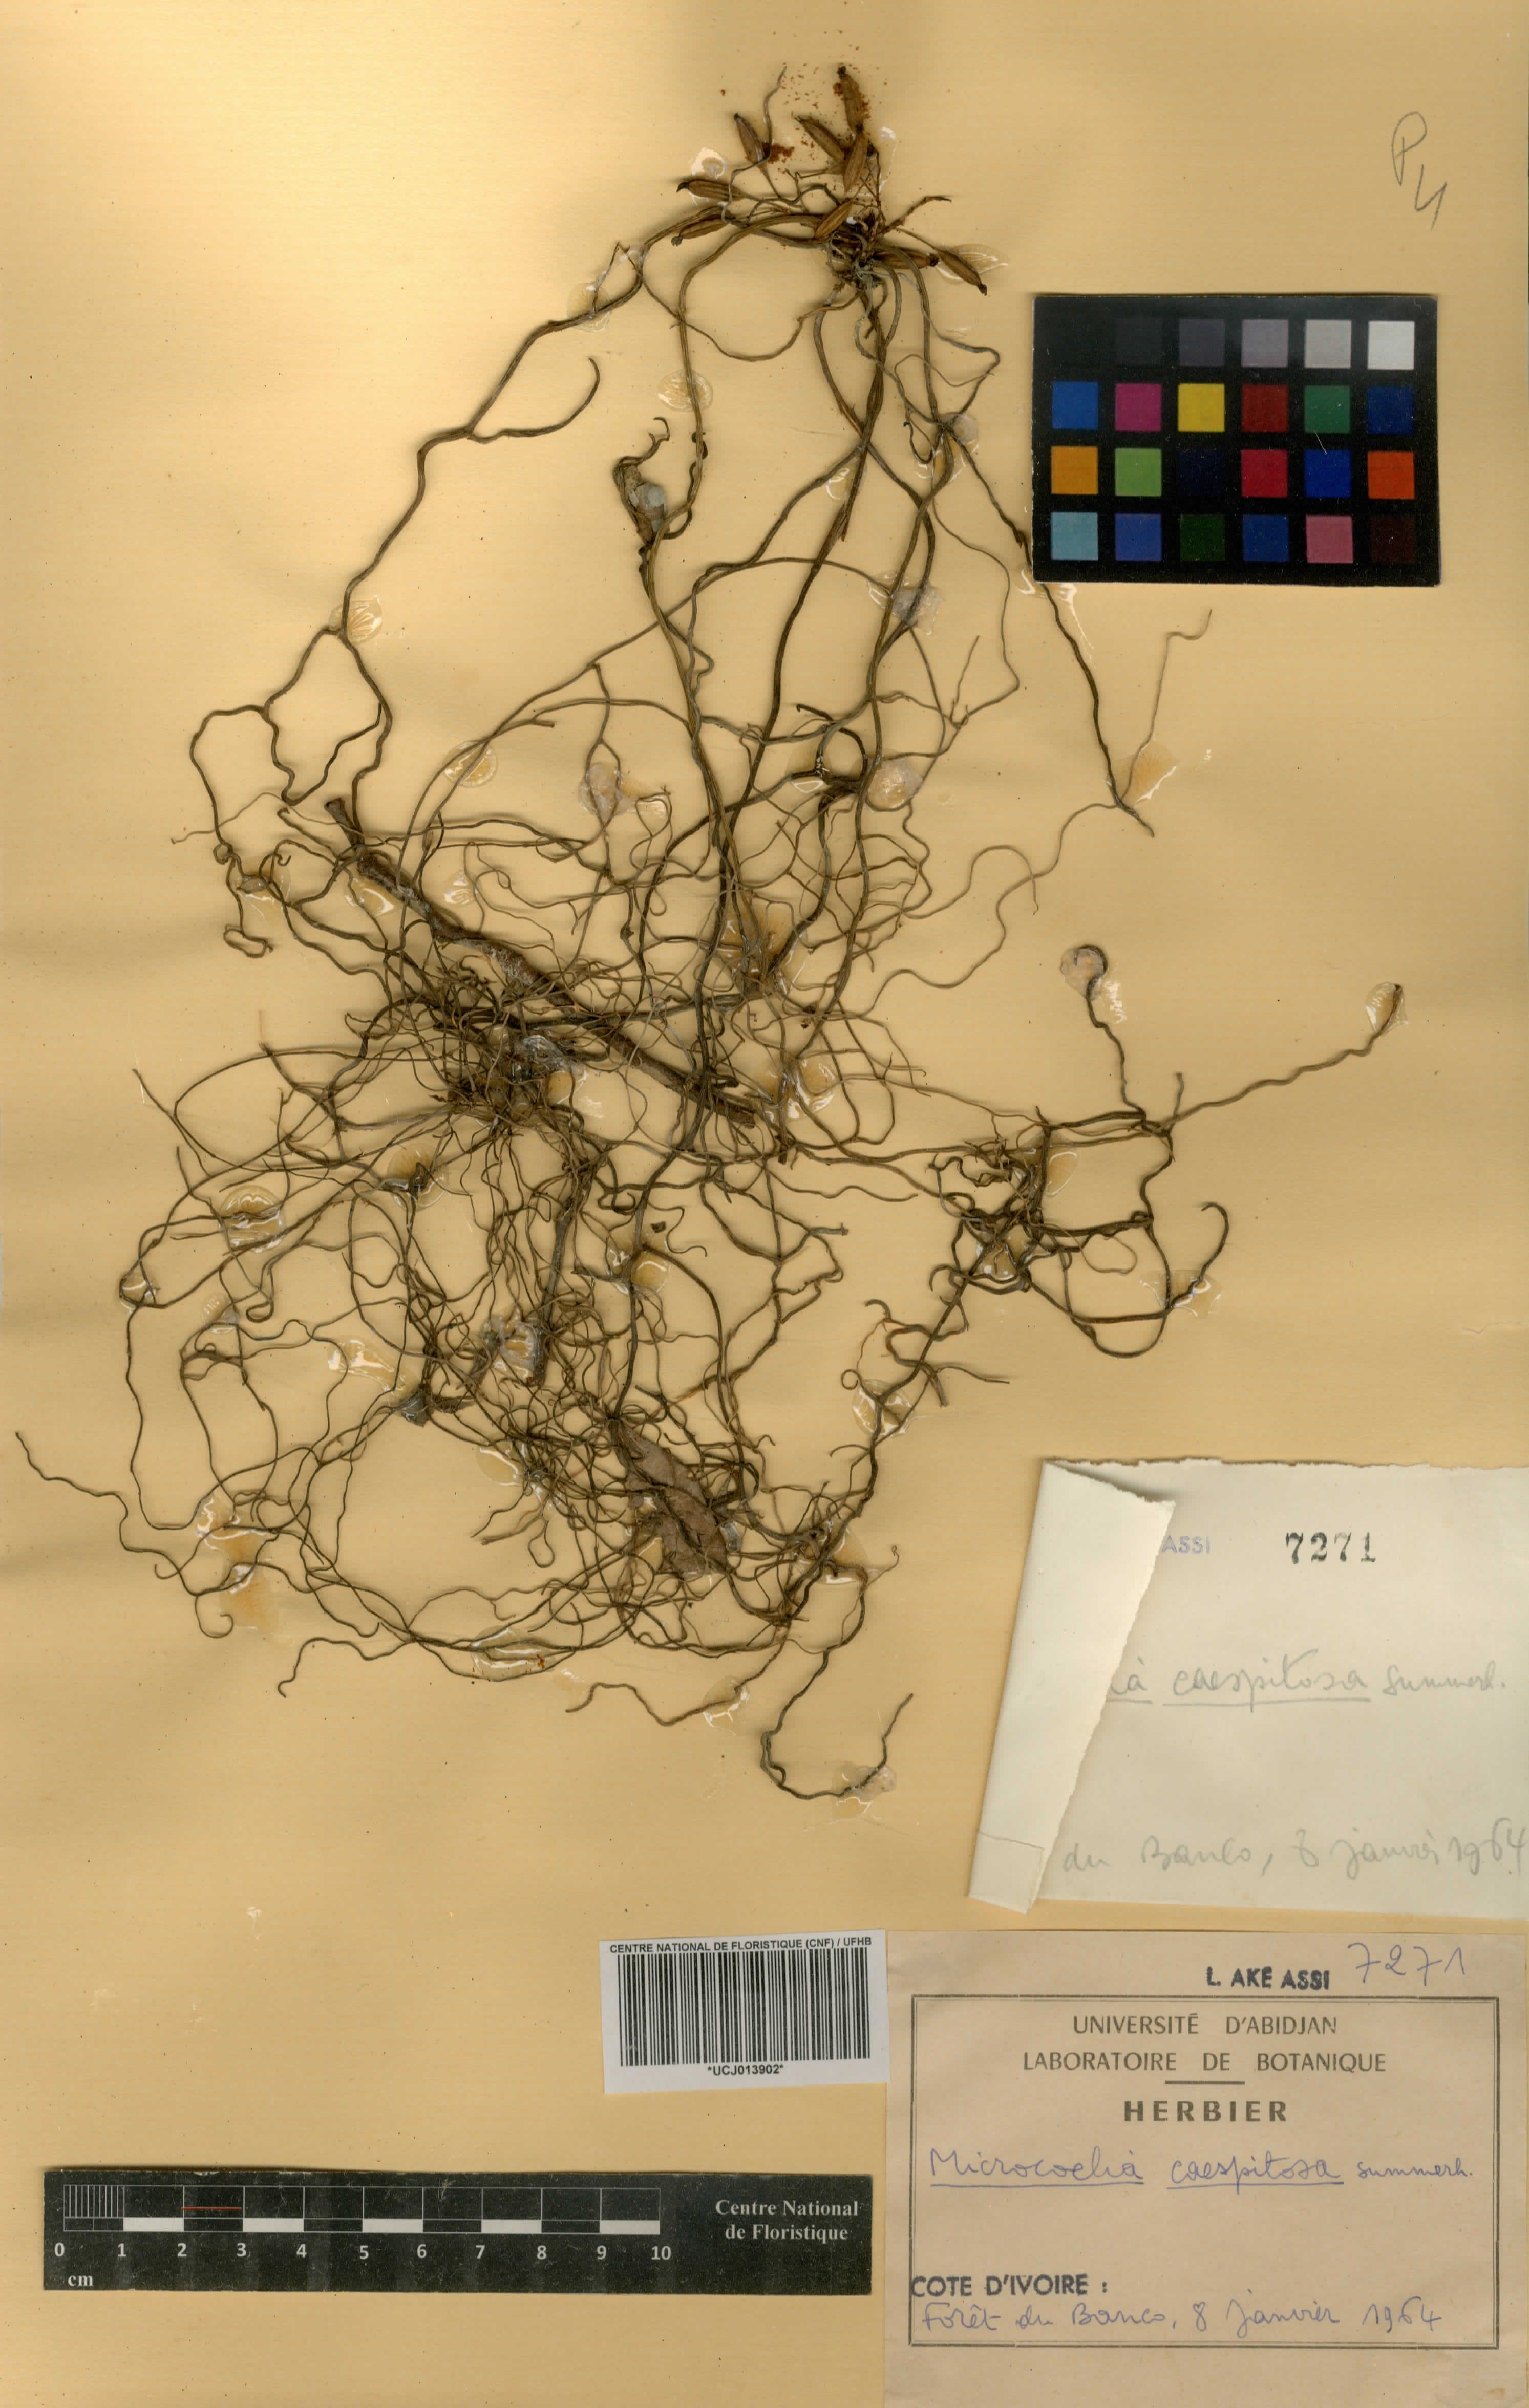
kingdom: Plantae
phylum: Tracheophyta
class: Liliopsida
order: Asparagales
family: Orchidaceae
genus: Microcoelia
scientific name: Microcoelia caespitosa
